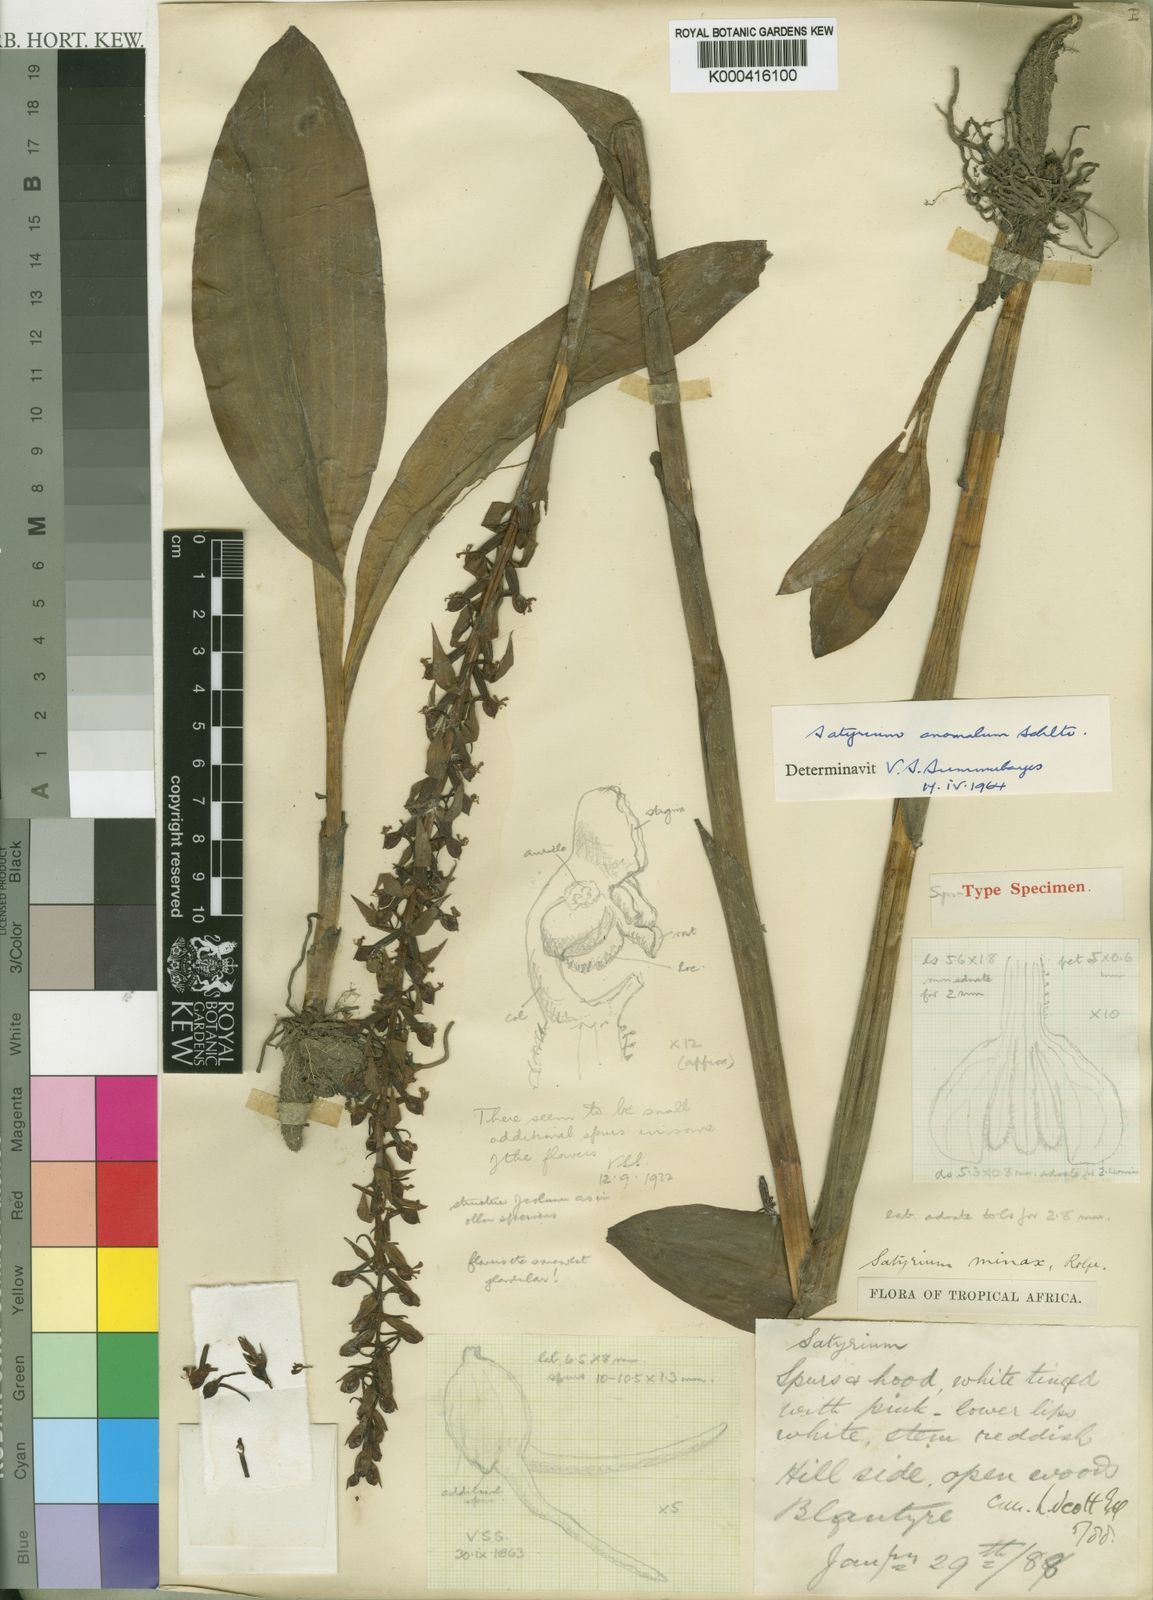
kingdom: Plantae
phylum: Tracheophyta
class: Liliopsida
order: Asparagales
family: Orchidaceae
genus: Satyrium
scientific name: Satyrium anomalum
